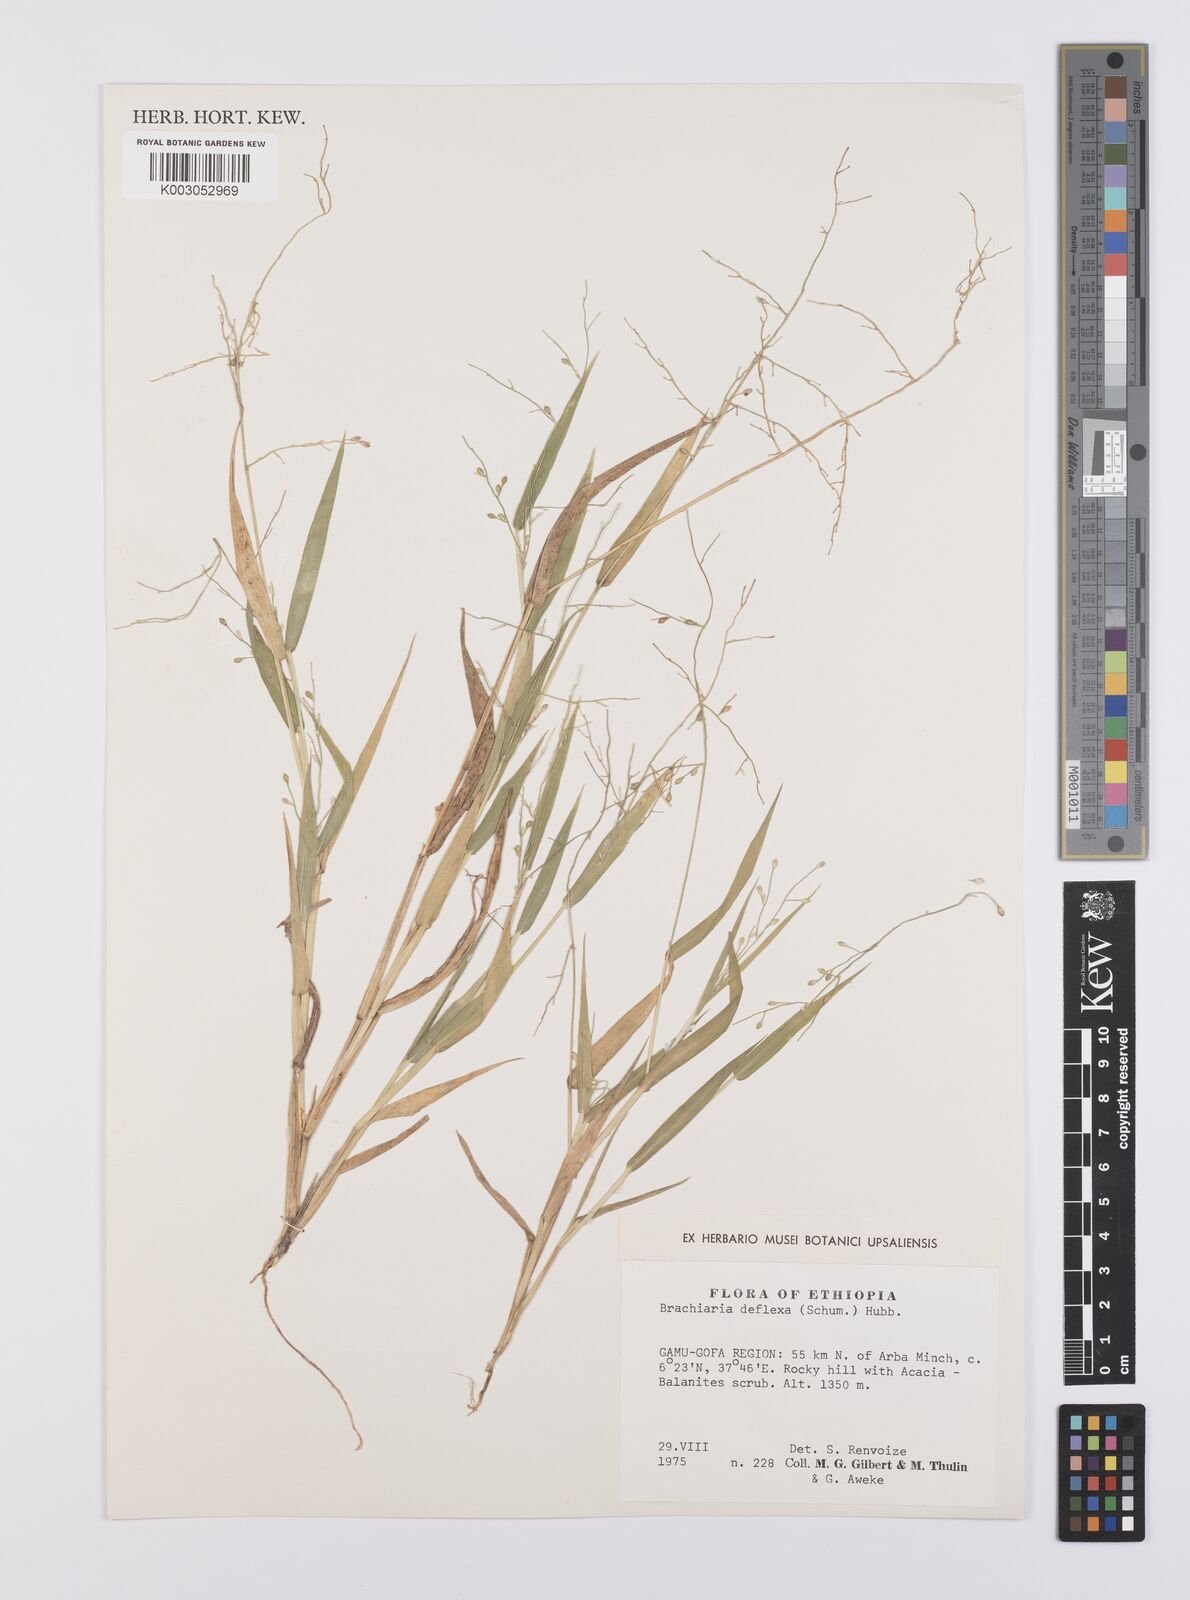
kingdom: Plantae
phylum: Tracheophyta
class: Liliopsida
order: Poales
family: Poaceae
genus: Urochloa
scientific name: Urochloa deflexa
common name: Guinea millet
